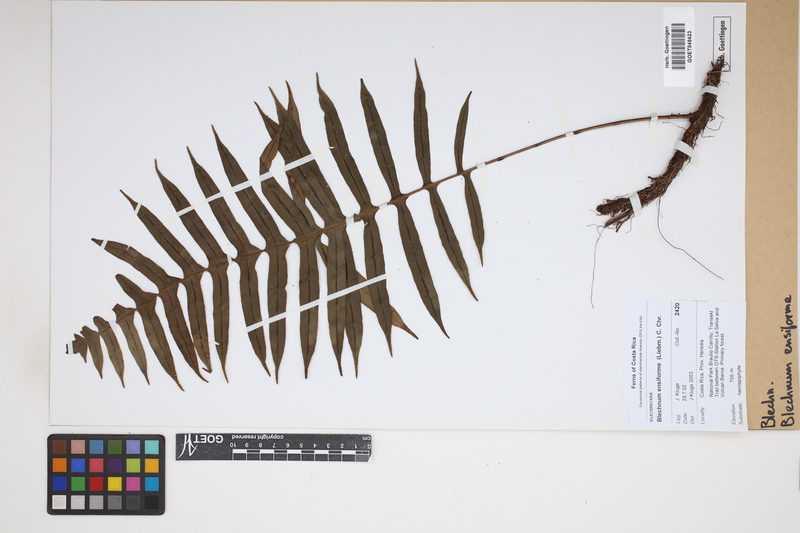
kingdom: Plantae
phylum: Tracheophyta
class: Polypodiopsida
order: Polypodiales
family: Blechnaceae
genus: Lomaridium
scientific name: Lomaridium ensiforme
